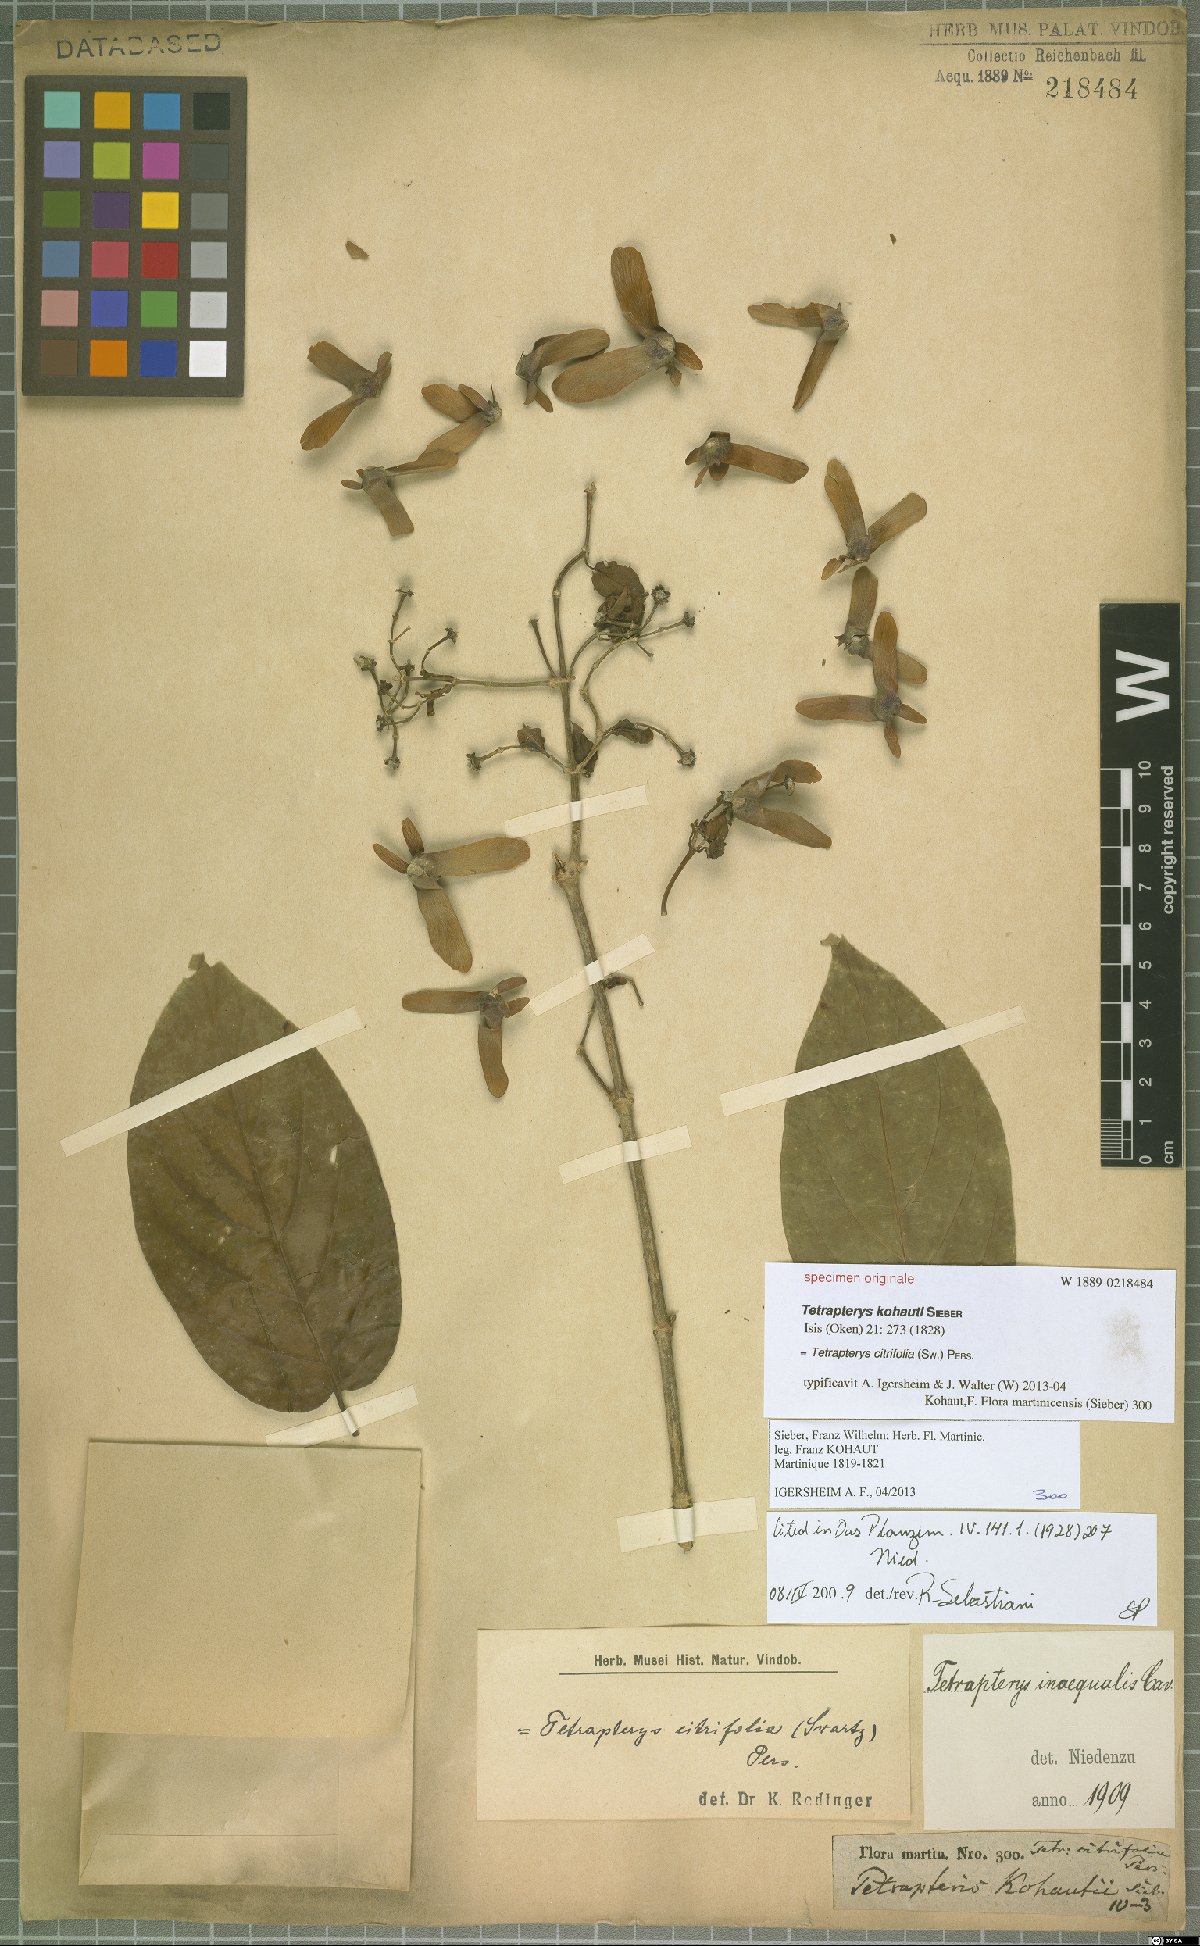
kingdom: Plantae
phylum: Tracheophyta
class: Magnoliopsida
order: Malpighiales
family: Malpighiaceae
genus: Tetrapterys
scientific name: Tetrapterys citrifolia
